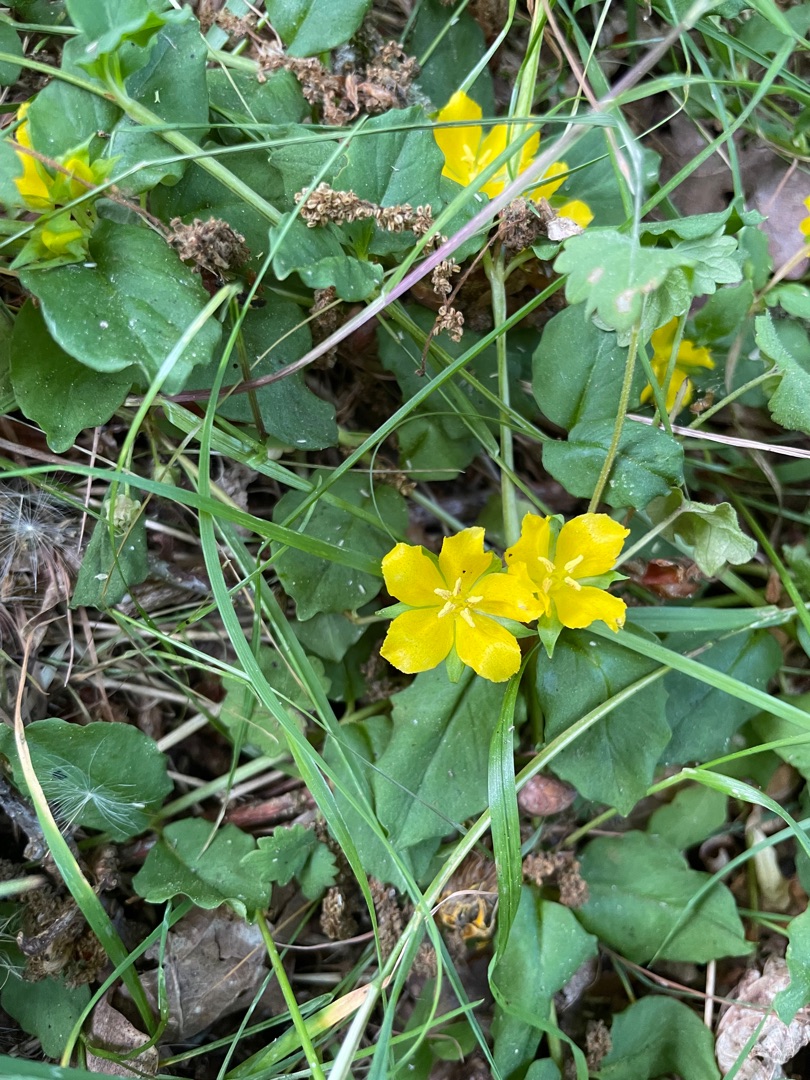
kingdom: Plantae
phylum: Tracheophyta
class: Magnoliopsida
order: Ericales
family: Primulaceae
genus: Lysimachia
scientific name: Lysimachia nummularia
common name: Pengebladet fredløs
